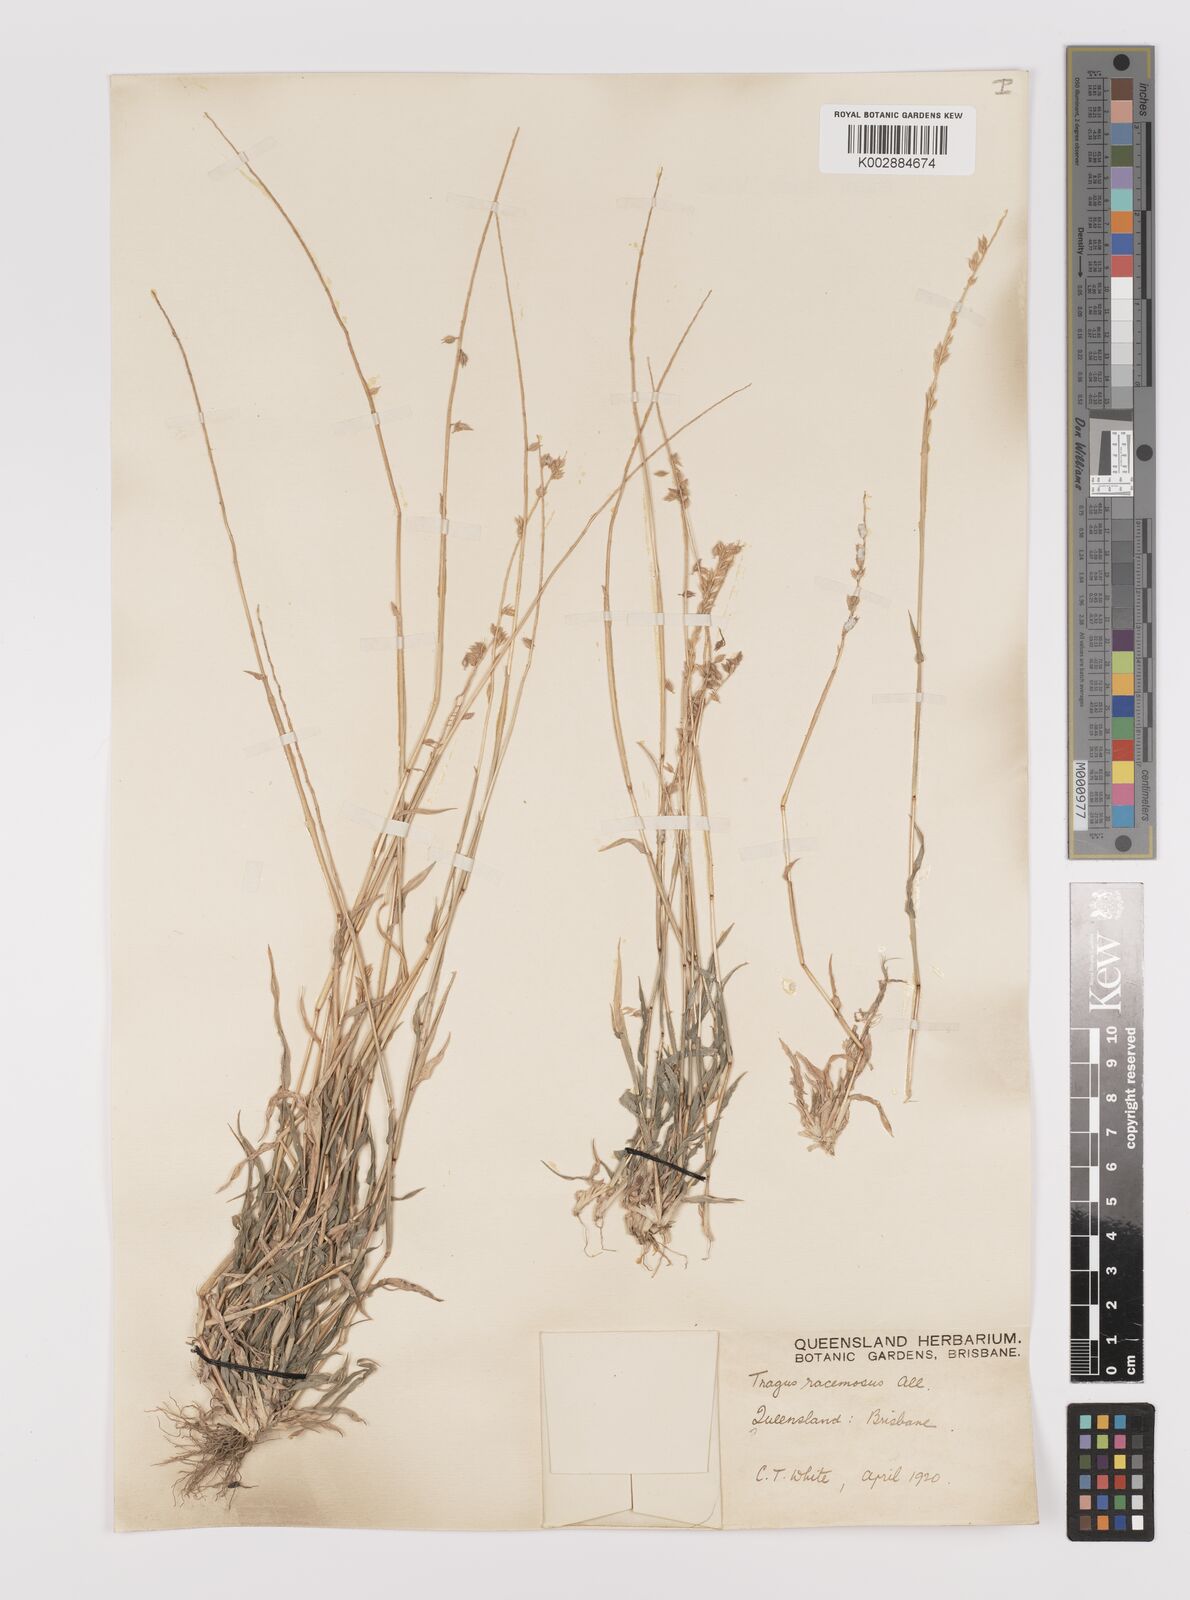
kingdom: Plantae
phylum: Tracheophyta
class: Liliopsida
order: Poales
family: Poaceae
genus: Tragus
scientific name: Tragus australianus
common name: Australian bur-grass
